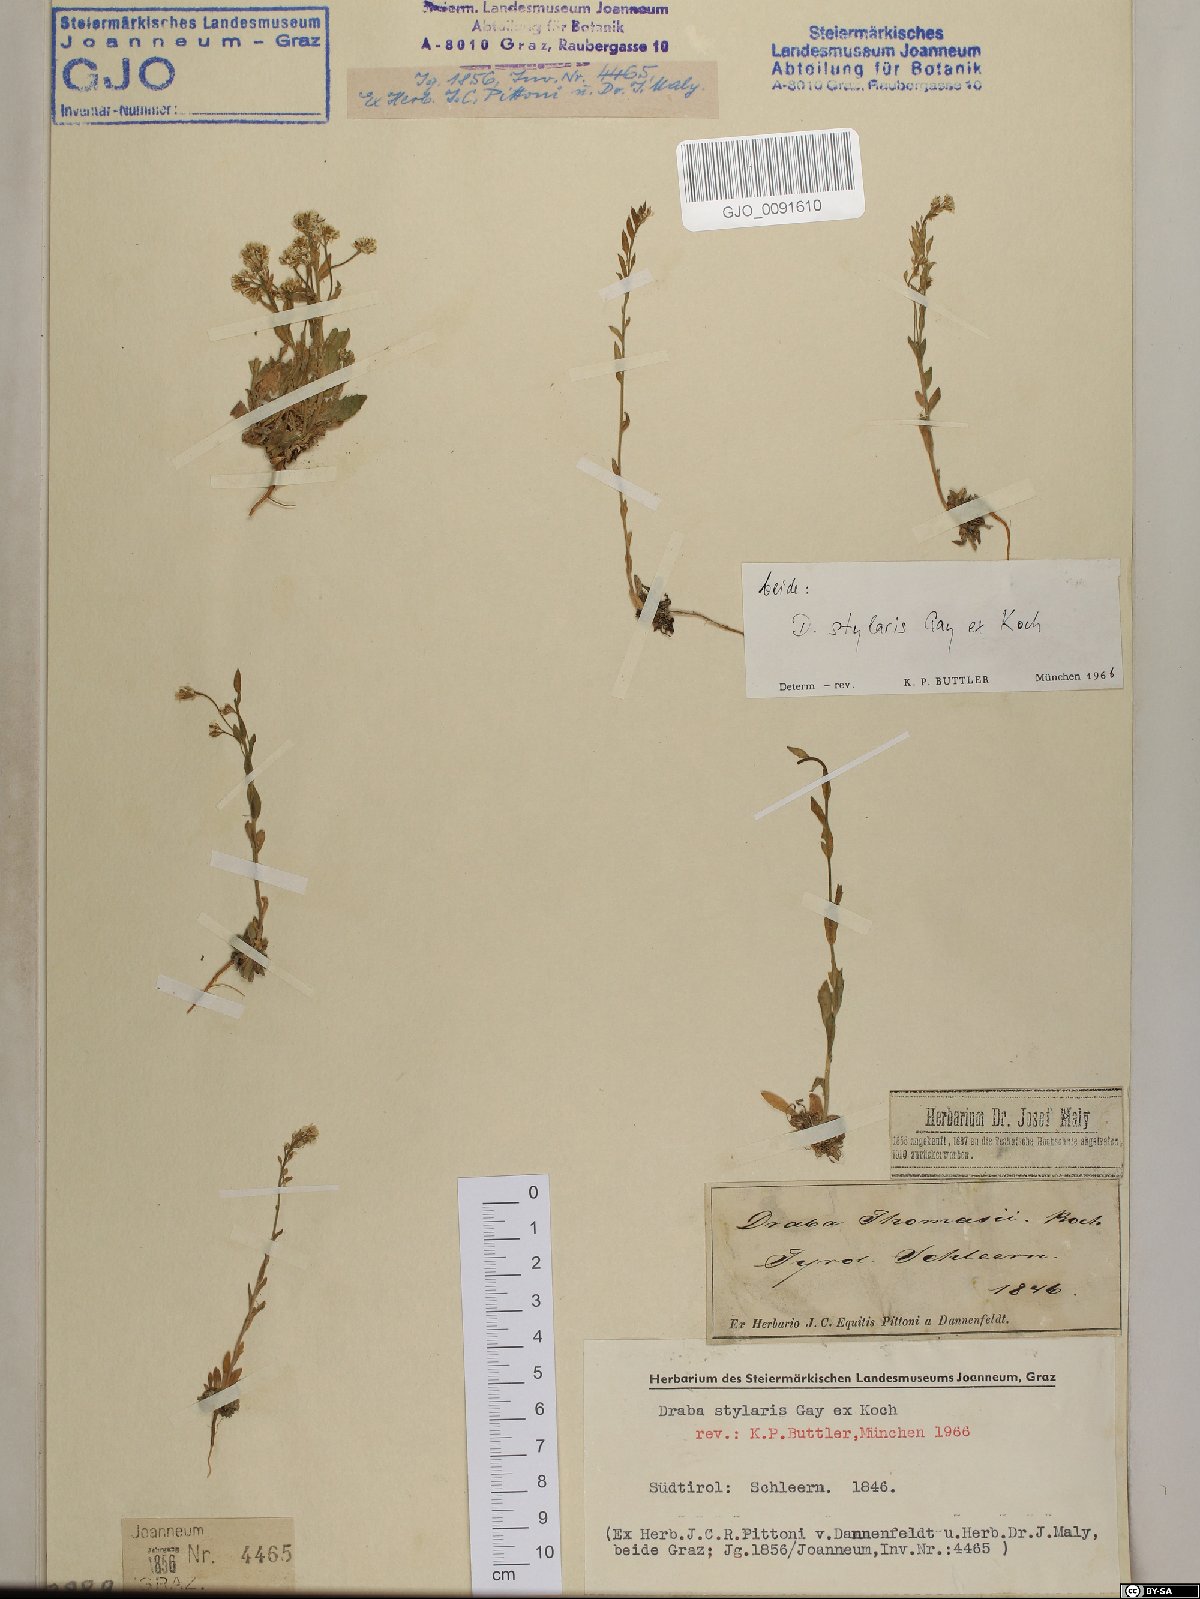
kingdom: Plantae
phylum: Tracheophyta
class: Magnoliopsida
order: Brassicales
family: Brassicaceae
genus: Draba
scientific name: Draba thomasii
